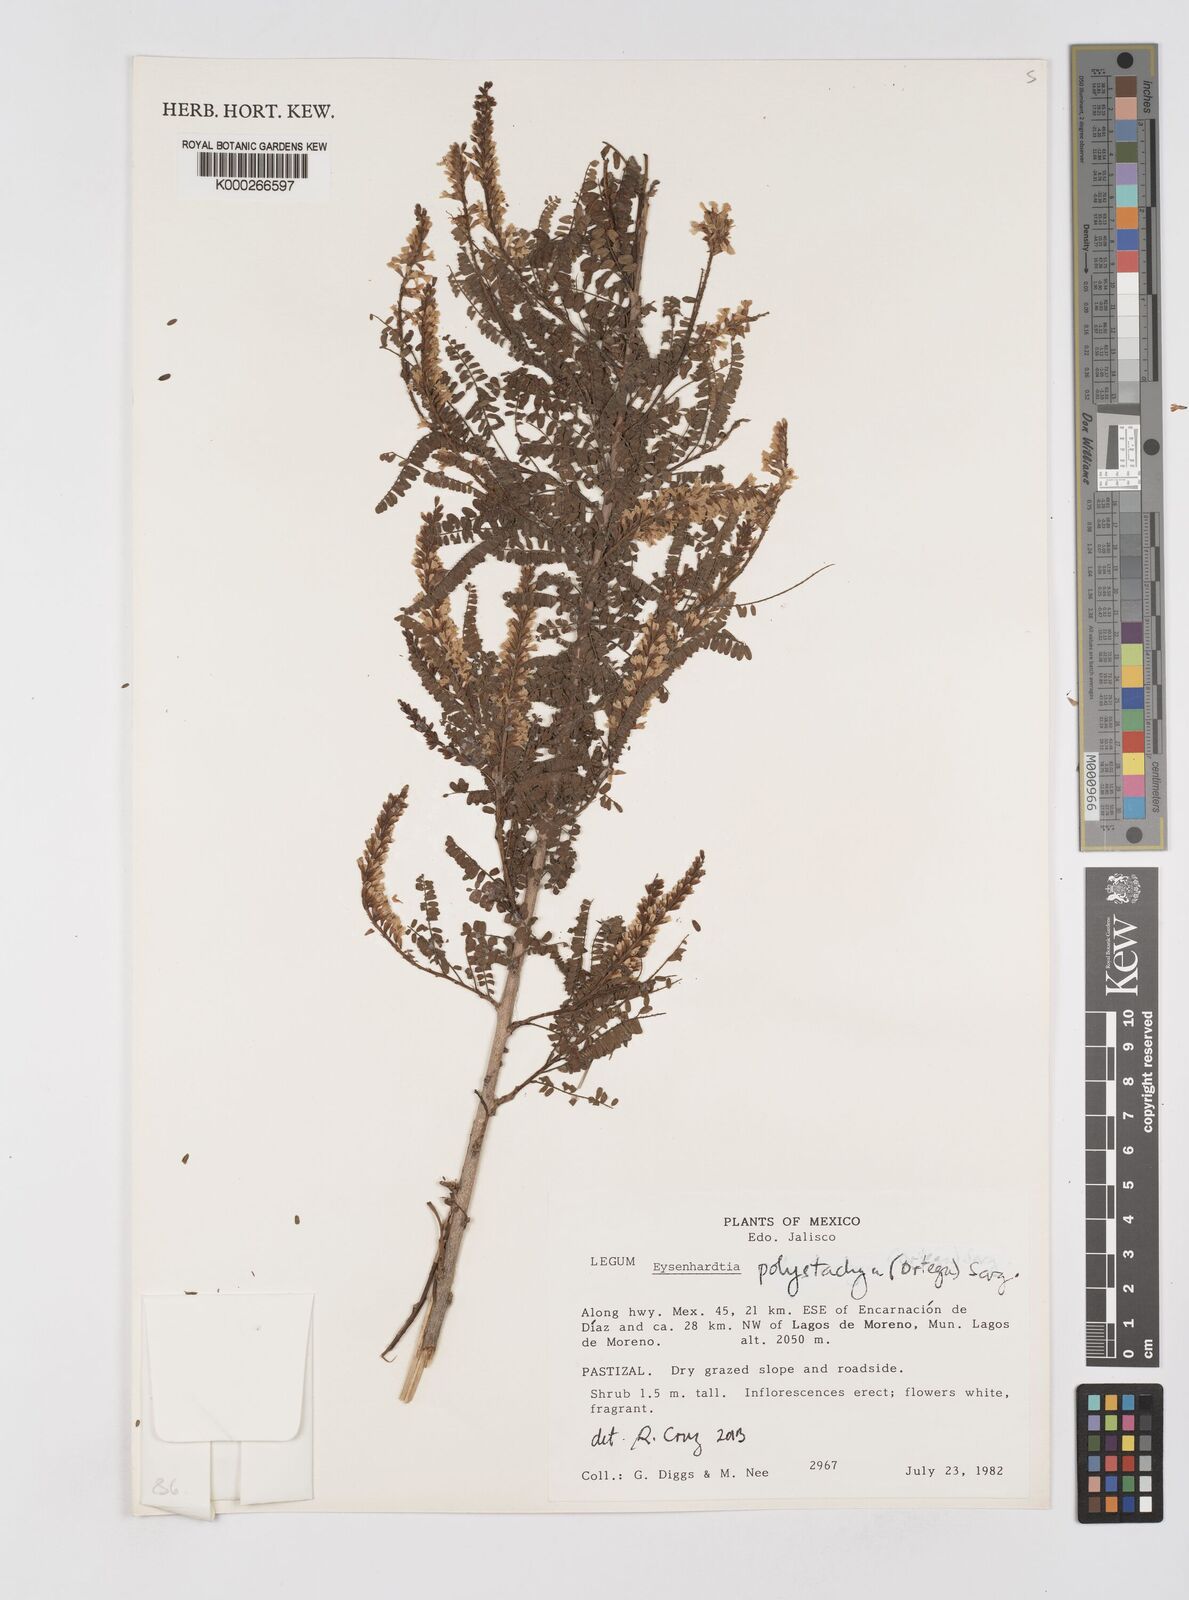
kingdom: Plantae
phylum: Tracheophyta
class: Magnoliopsida
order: Fabales
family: Fabaceae
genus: Eysenhardtia
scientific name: Eysenhardtia polystachya
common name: Kidneywood
